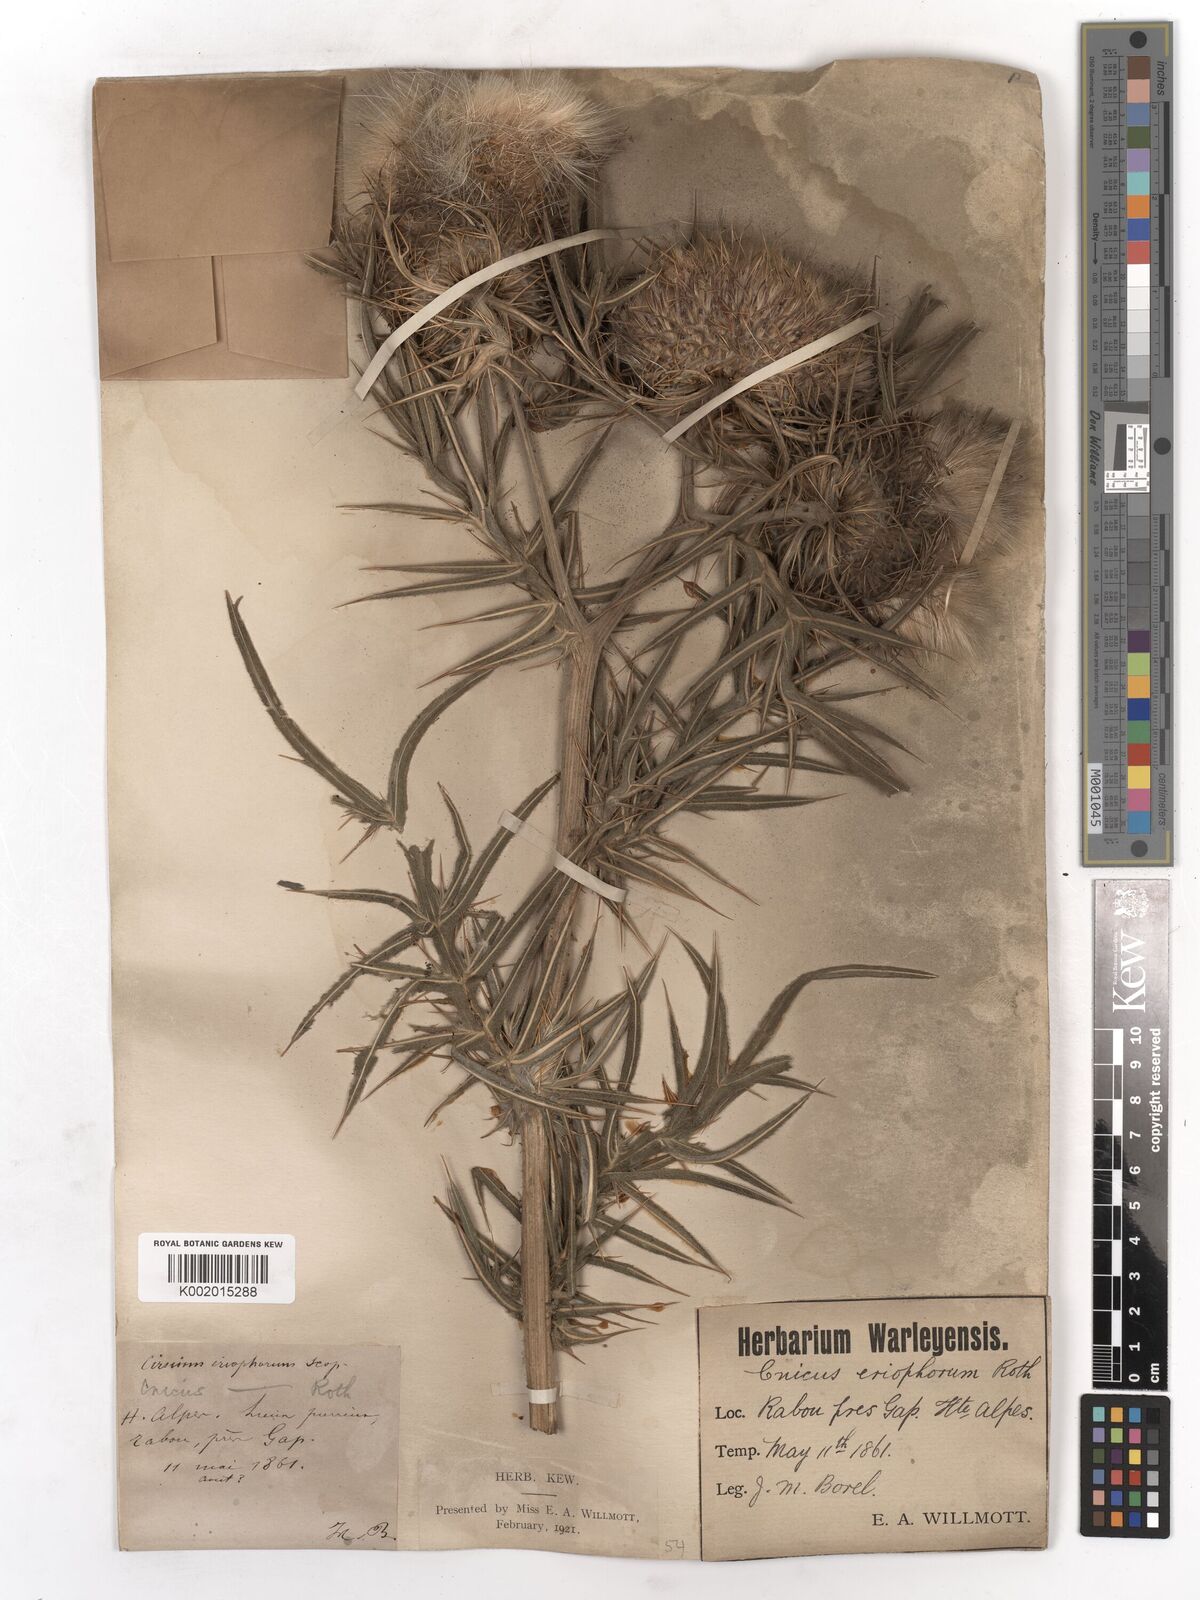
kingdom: Plantae
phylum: Tracheophyta
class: Magnoliopsida
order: Asterales
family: Asteraceae
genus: Lophiolepis
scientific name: Lophiolepis eriophora
